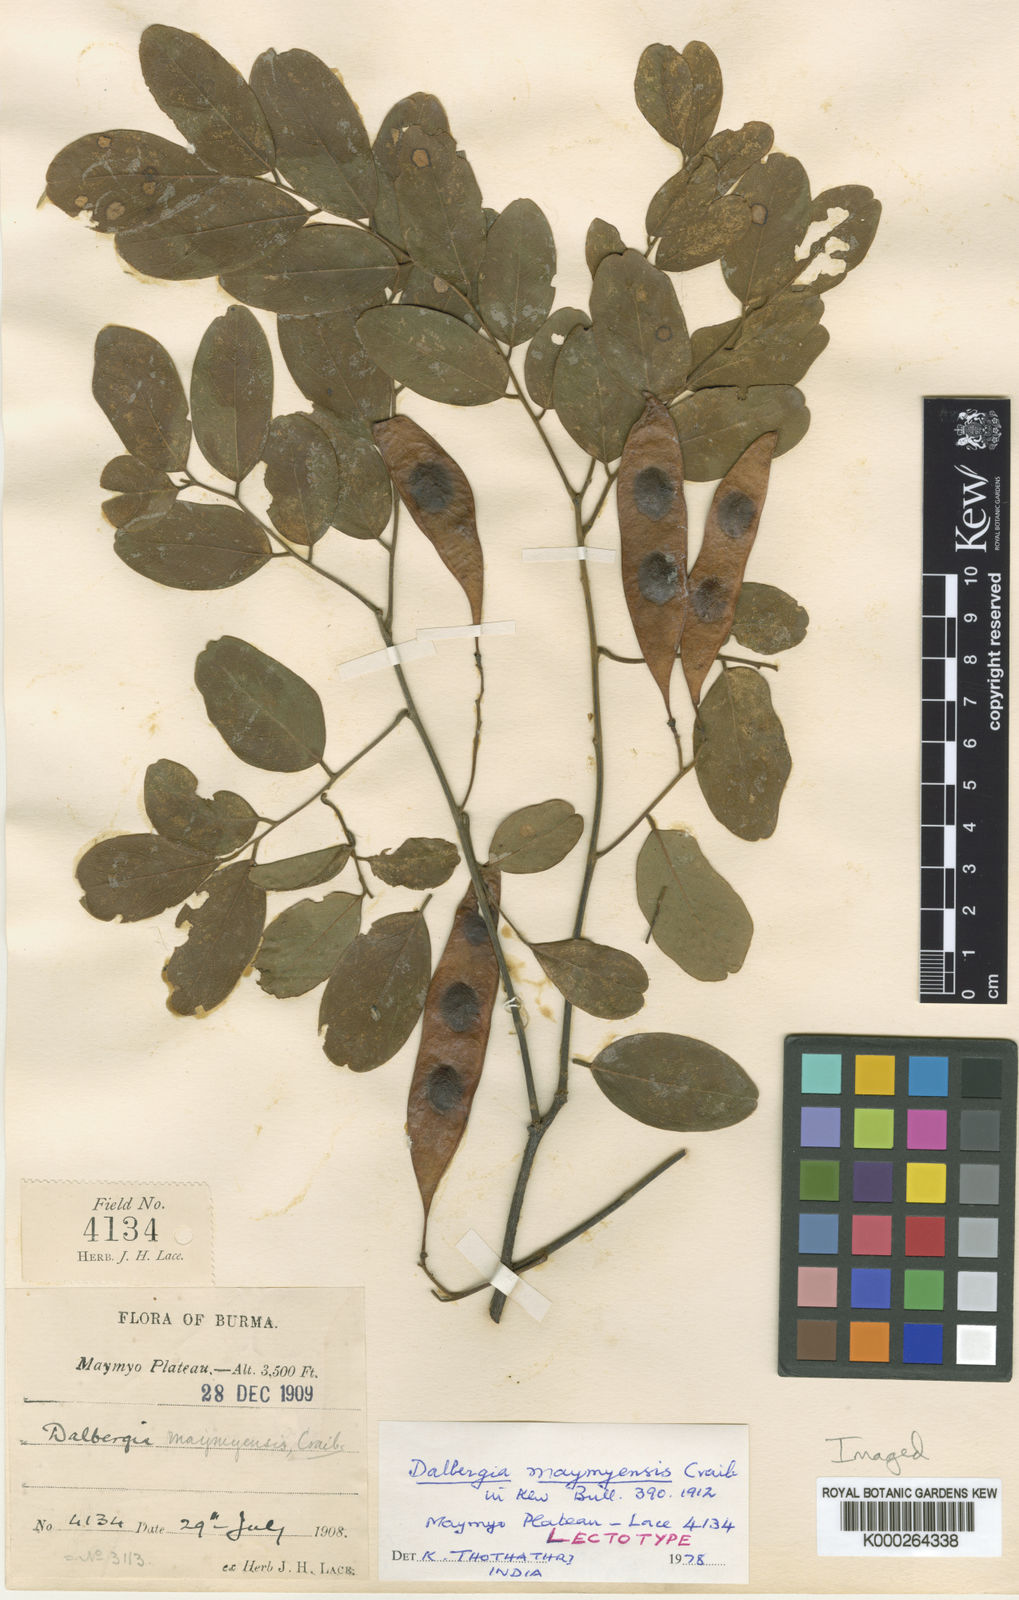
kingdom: Plantae
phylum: Tracheophyta
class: Magnoliopsida
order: Fabales
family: Fabaceae
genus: Dalbergia
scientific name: Dalbergia lanceolaria
